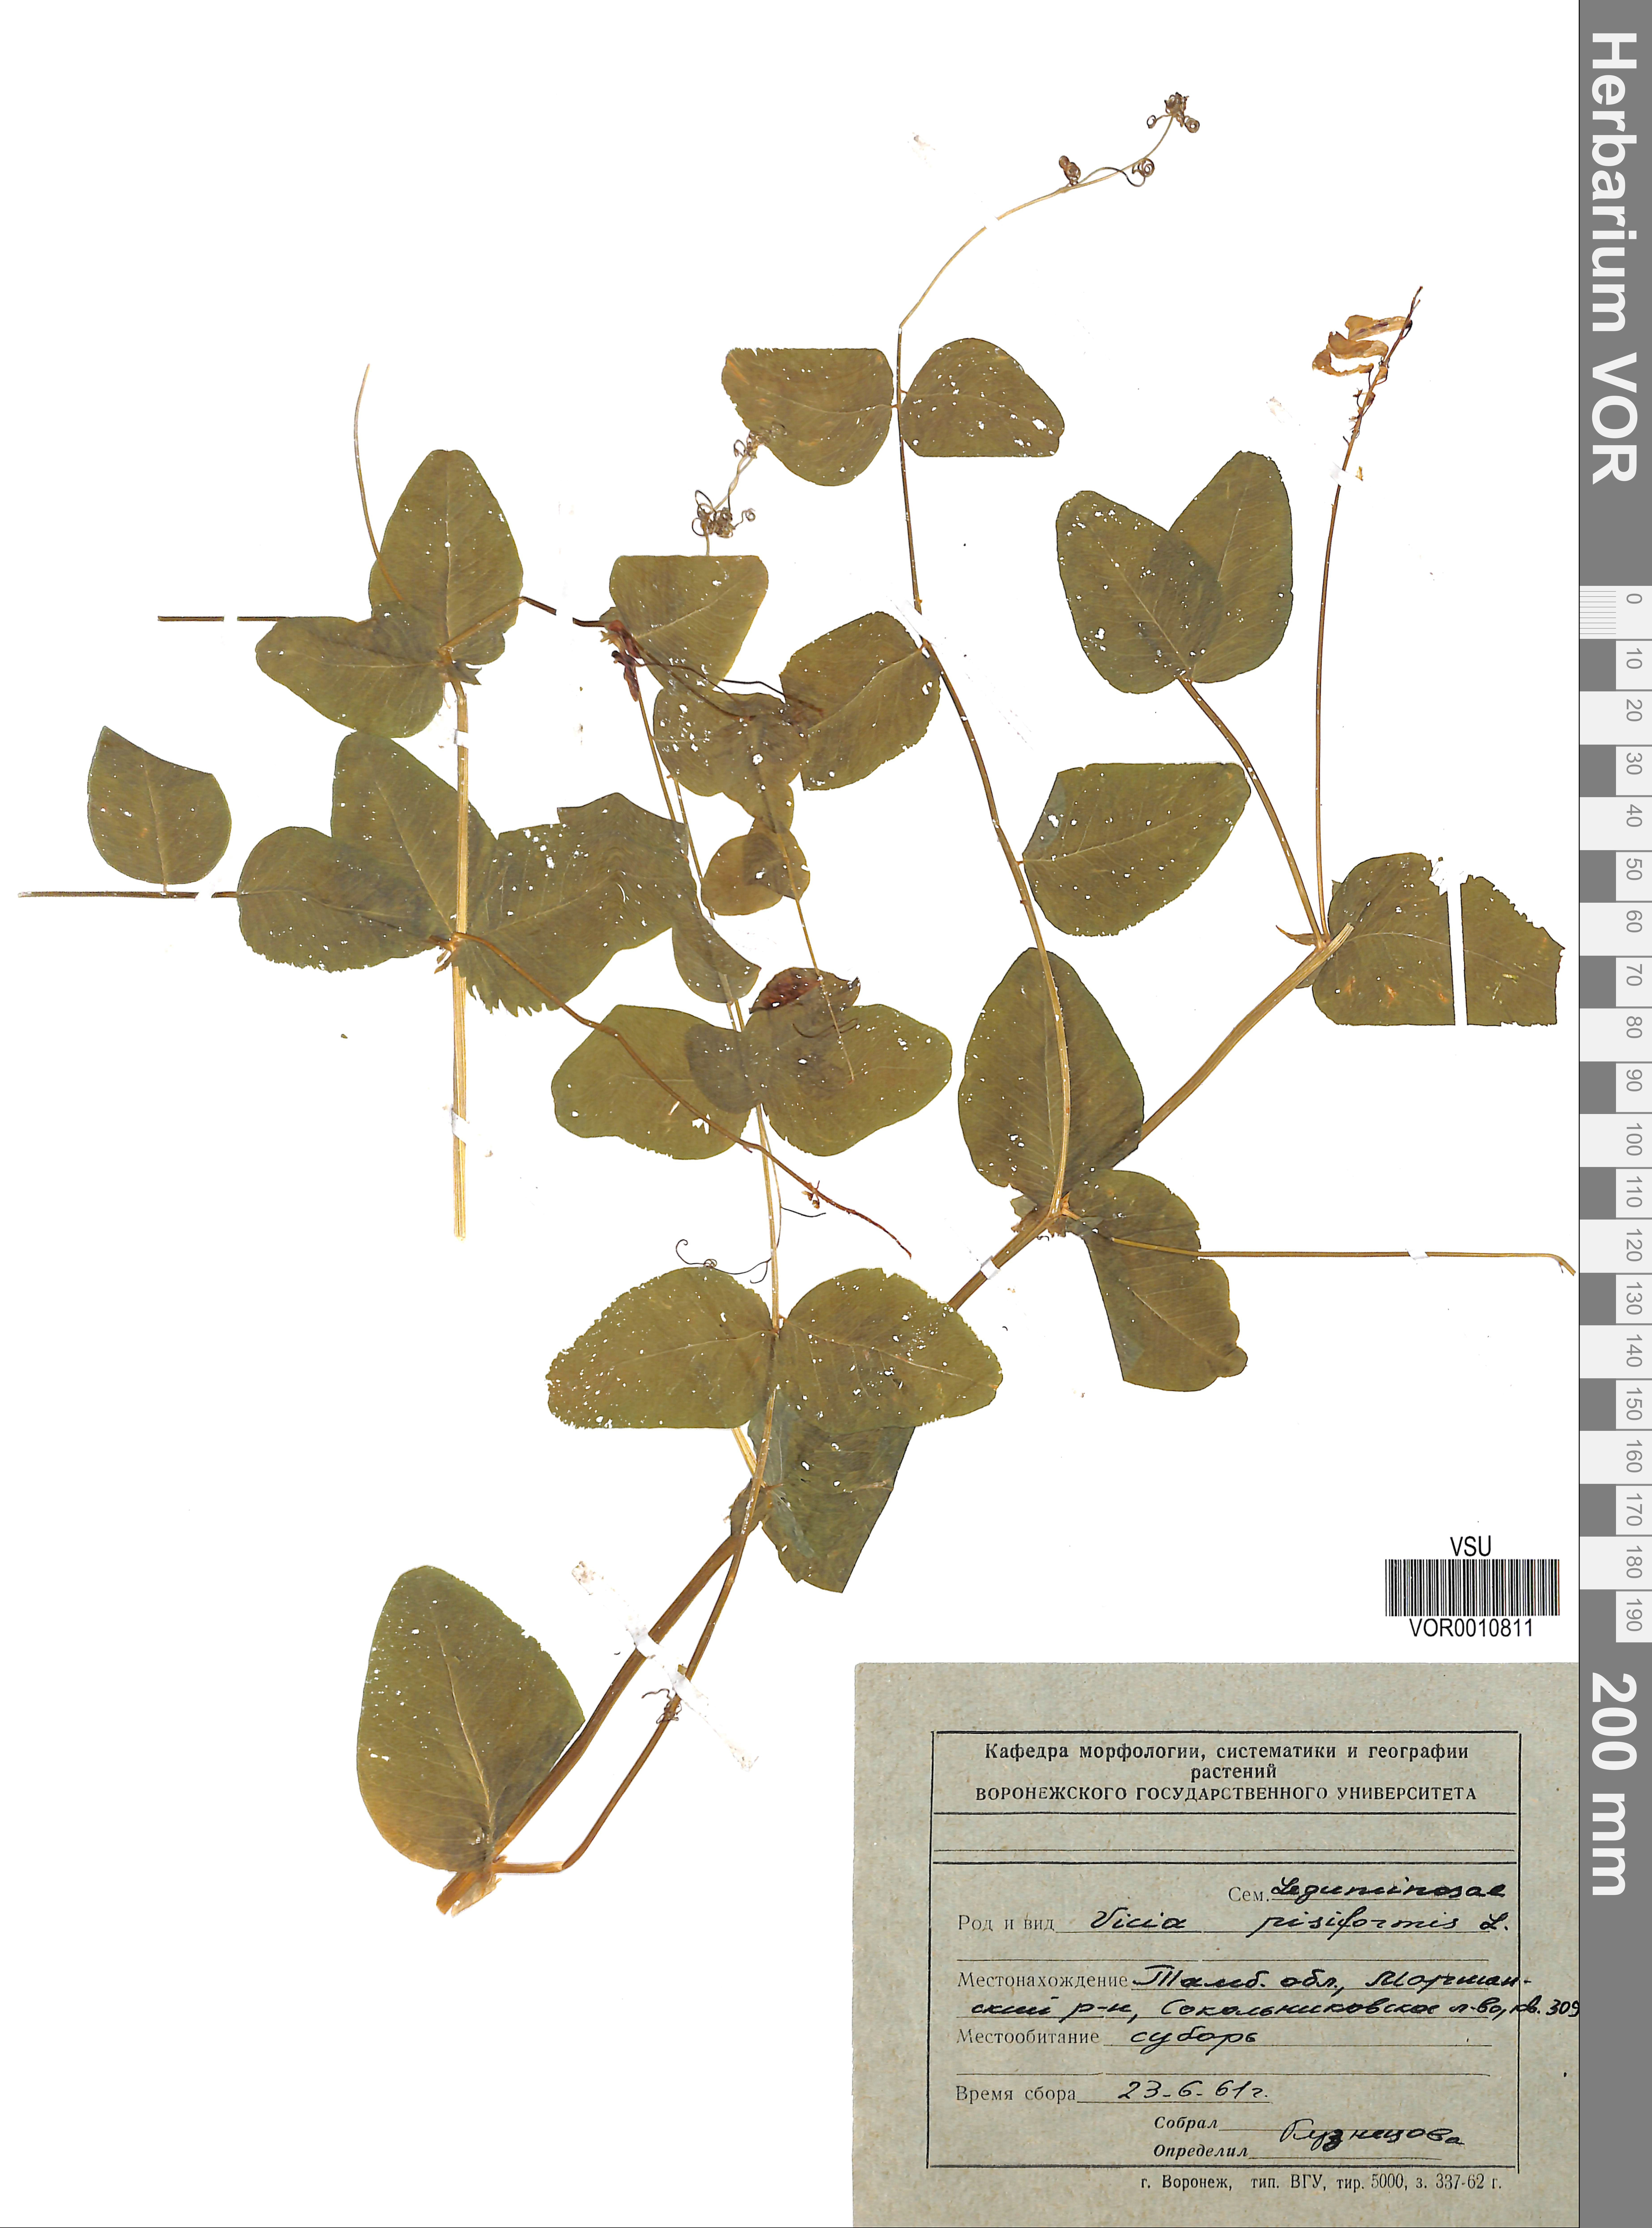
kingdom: Plantae
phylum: Tracheophyta
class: Magnoliopsida
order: Fabales
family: Fabaceae
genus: Vicia
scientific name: Vicia pisiformis
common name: Pale-flower vetch
